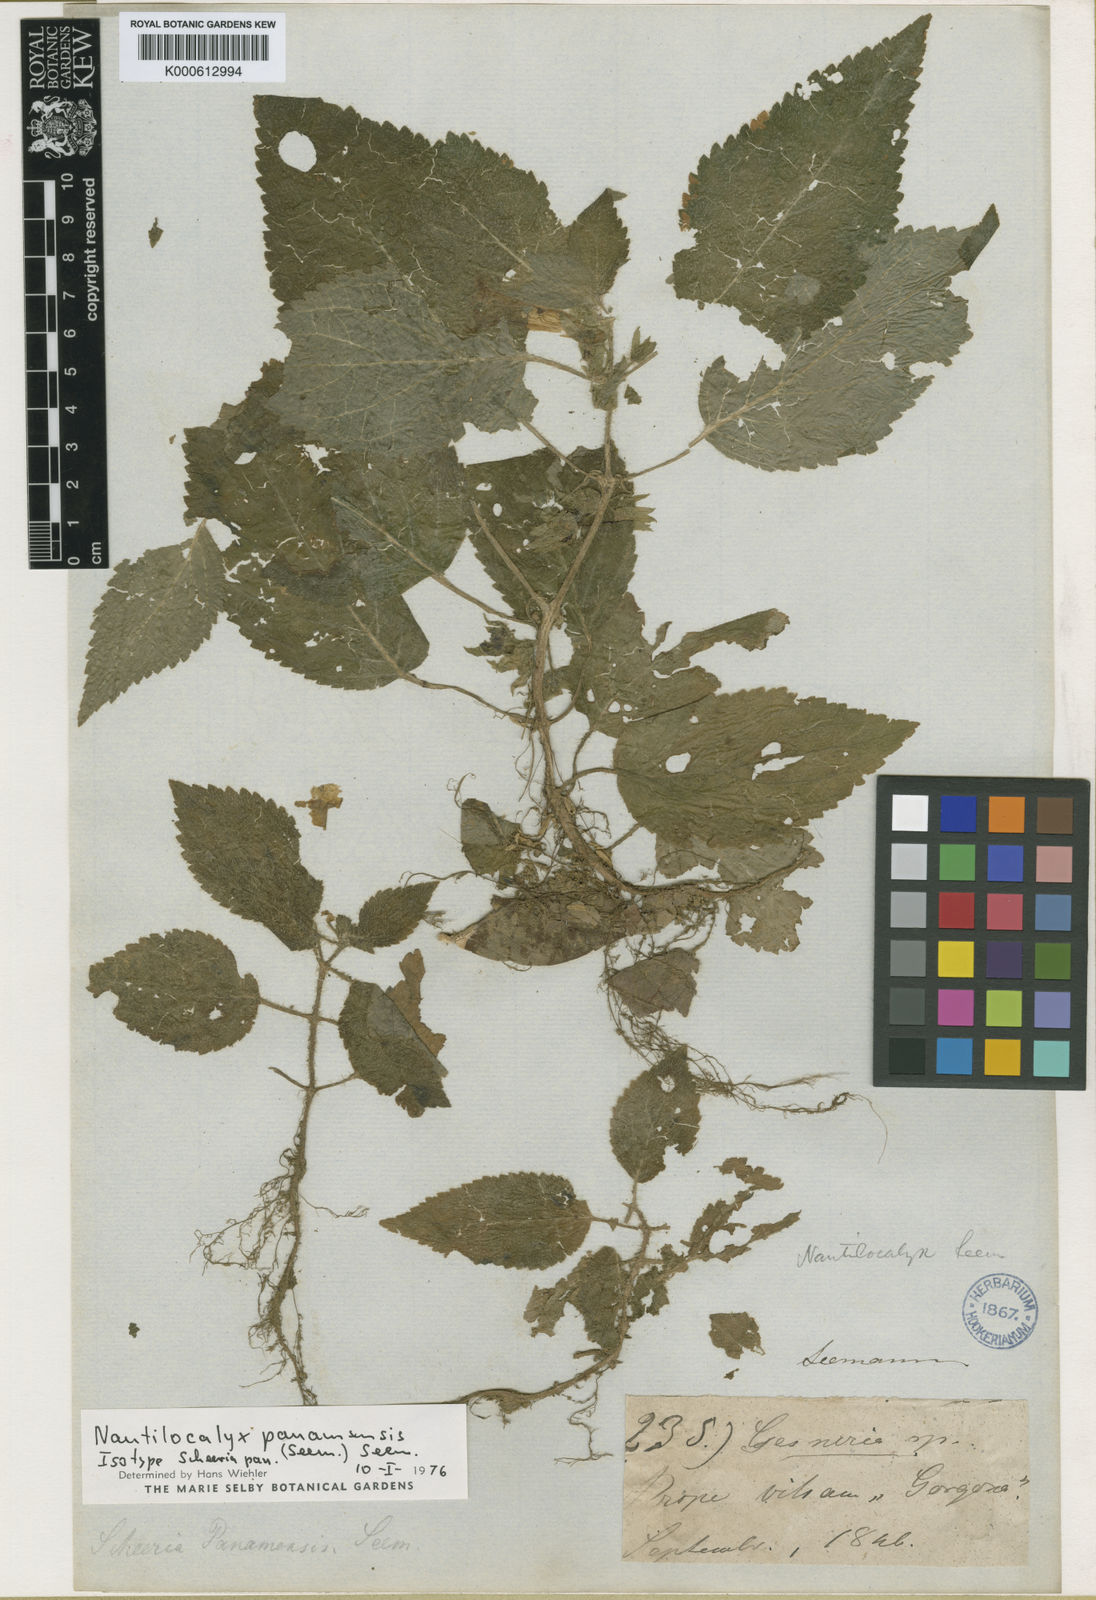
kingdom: Plantae
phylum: Tracheophyta
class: Magnoliopsida
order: Lamiales
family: Gesneriaceae
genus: Chrysothemis
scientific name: Chrysothemis panamensis
